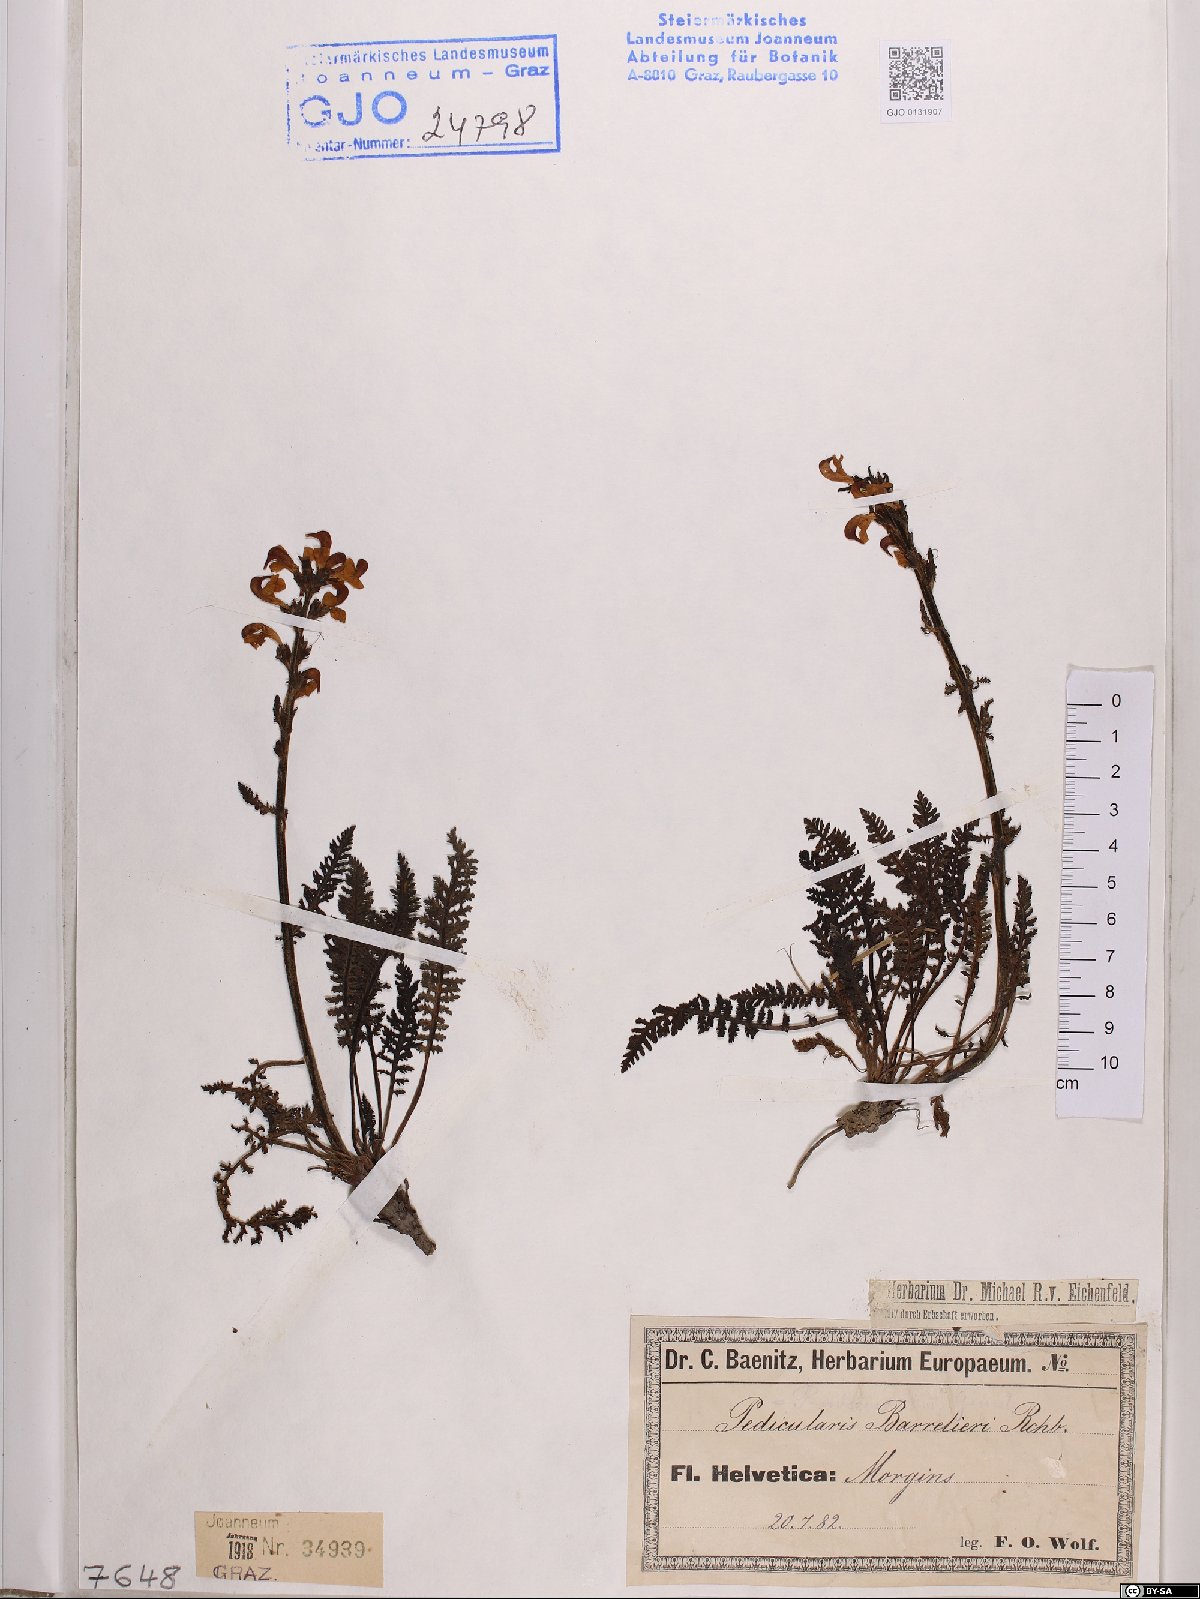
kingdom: Plantae
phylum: Tracheophyta
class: Magnoliopsida
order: Lamiales
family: Orobanchaceae
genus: Pedicularis
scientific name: Pedicularis ascendens
